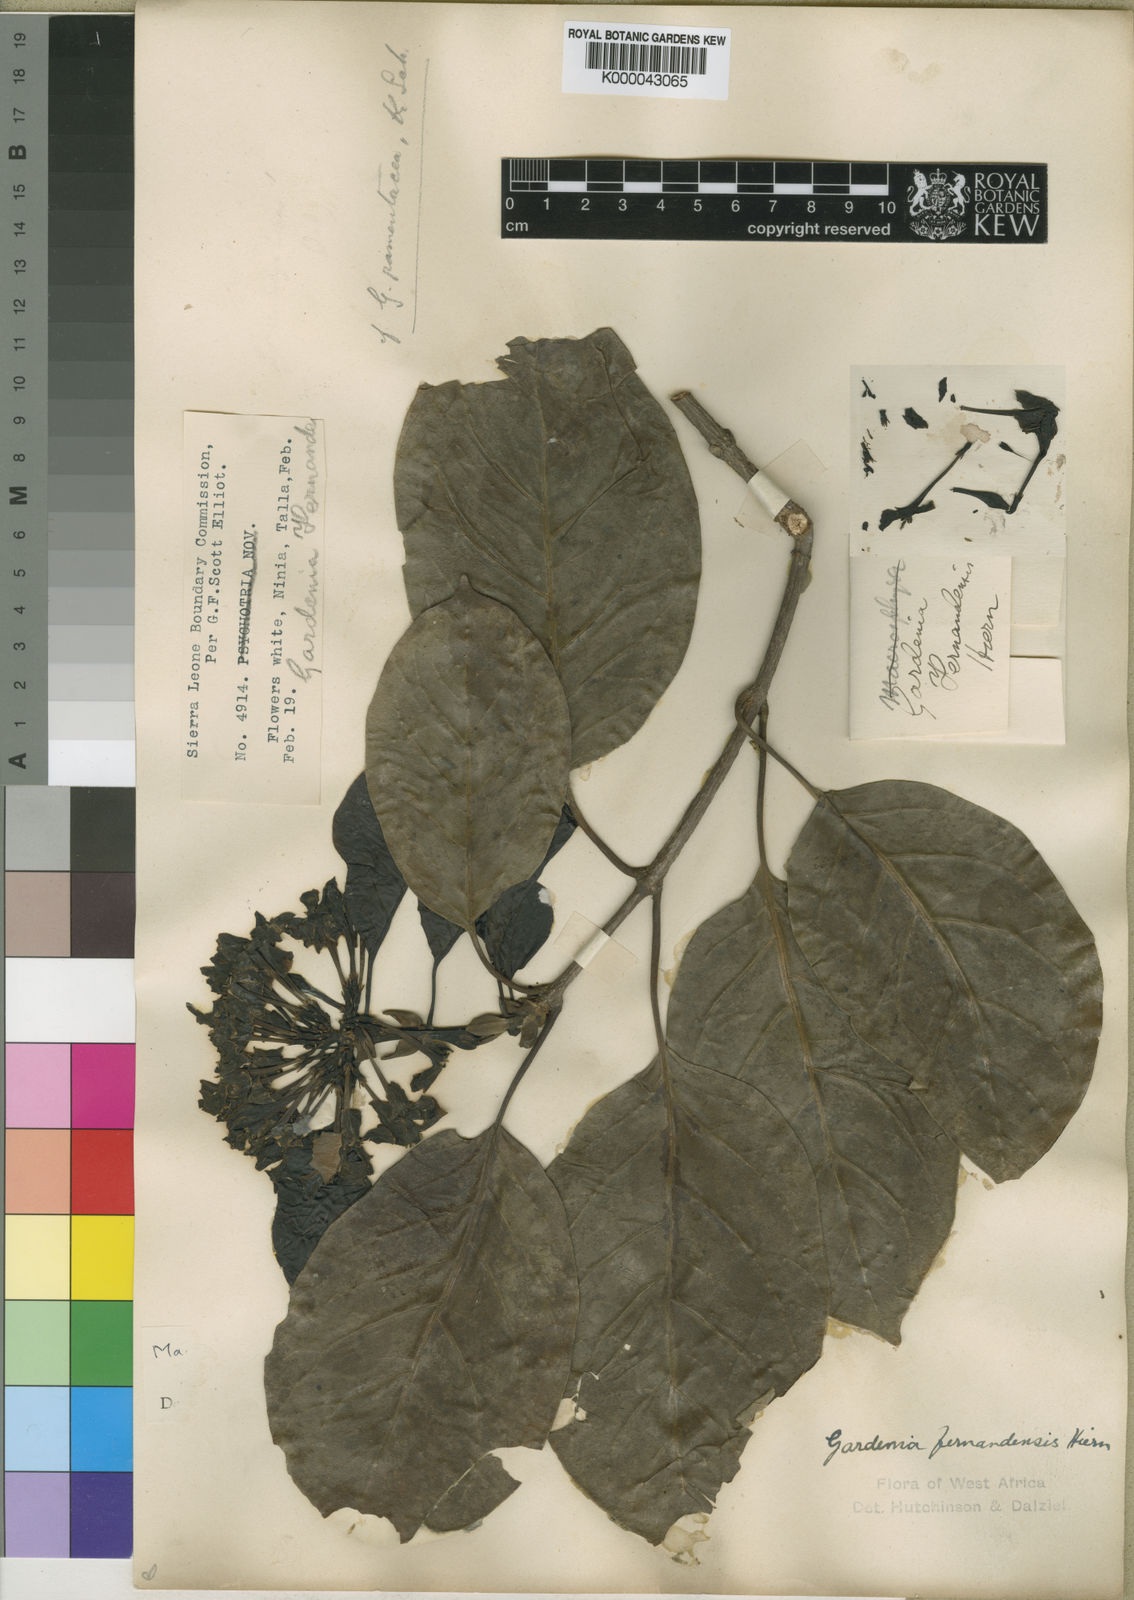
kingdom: Plantae
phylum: Tracheophyta
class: Magnoliopsida
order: Gentianales
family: Rubiaceae
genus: Pleiocoryne
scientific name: Pleiocoryne
